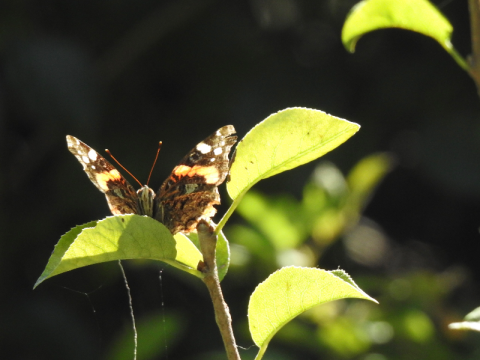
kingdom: Animalia
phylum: Arthropoda
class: Insecta
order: Lepidoptera
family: Nymphalidae
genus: Vanessa
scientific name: Vanessa atalanta
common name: Red Admiral
